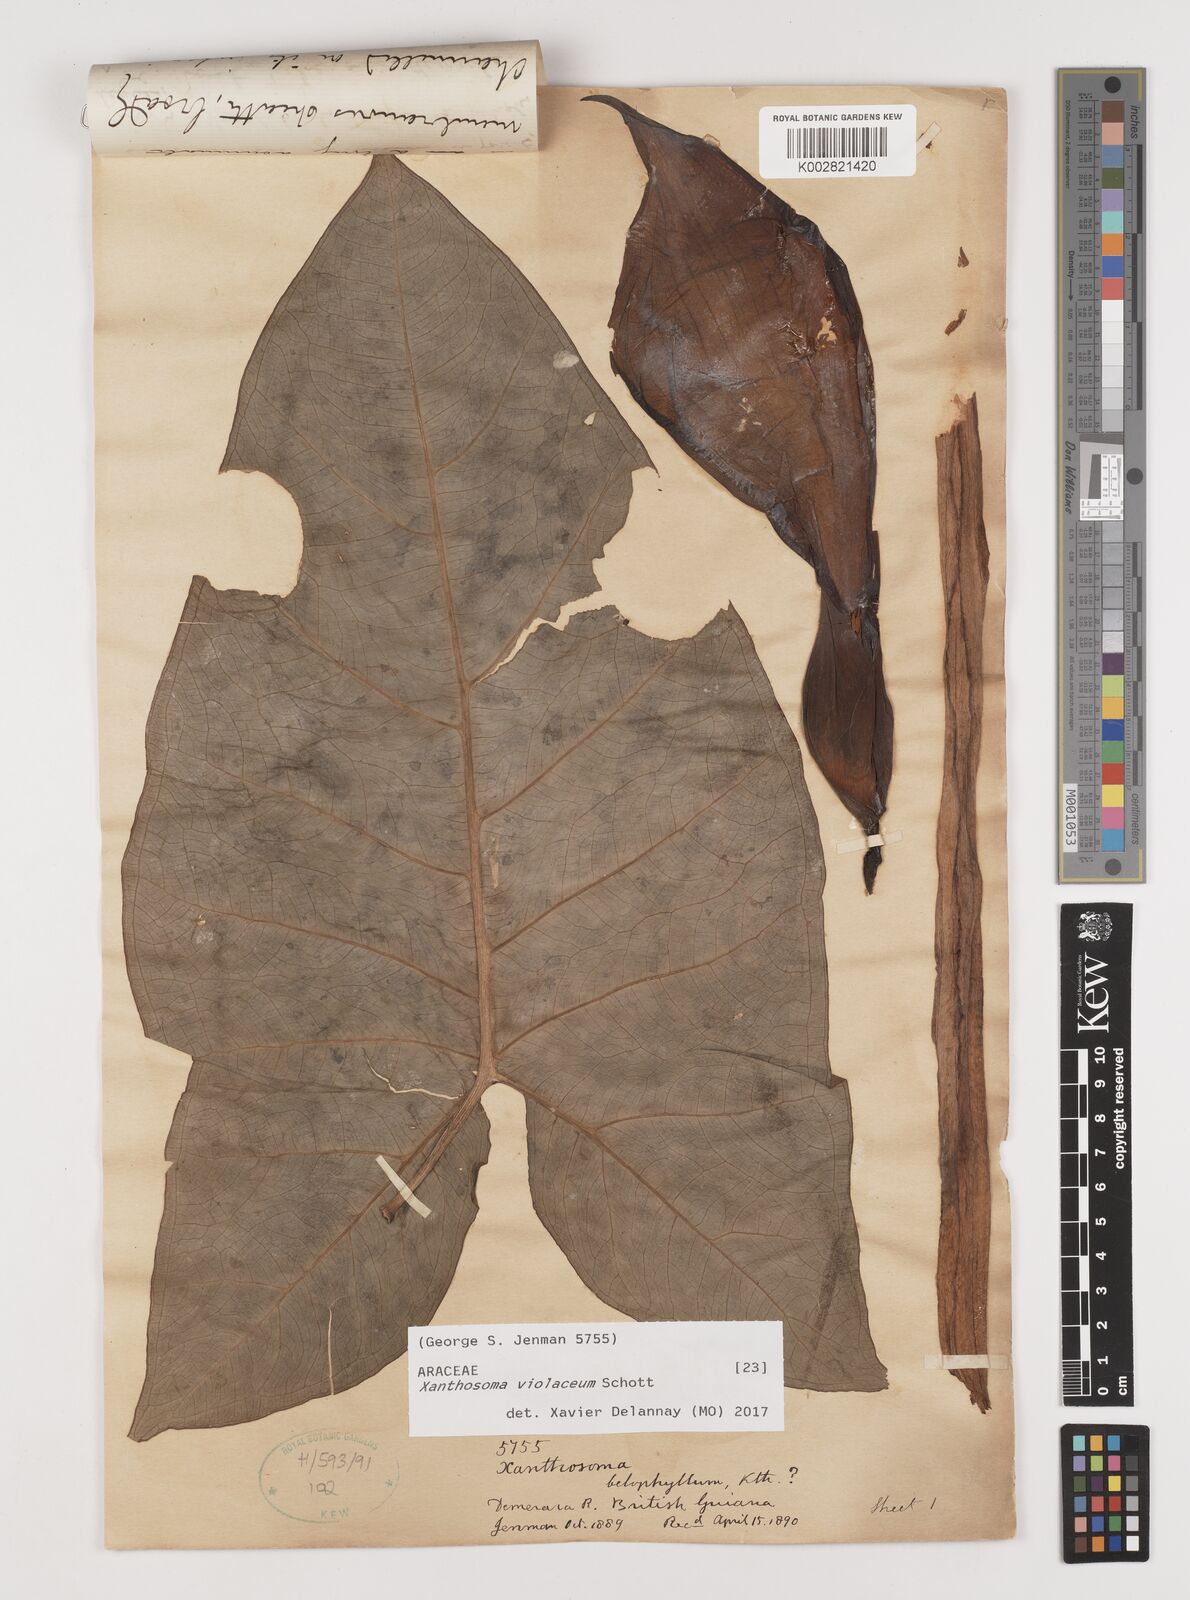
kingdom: Plantae
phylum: Tracheophyta
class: Liliopsida
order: Alismatales
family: Araceae
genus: Xanthosoma
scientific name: Xanthosoma sagittifolium
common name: Arrowleaf elephant's ear
